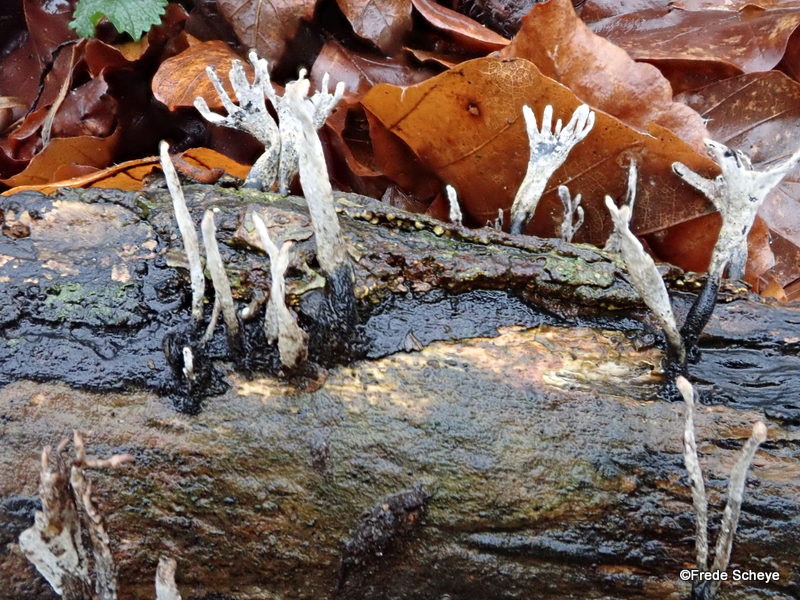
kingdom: Fungi
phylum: Ascomycota
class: Sordariomycetes
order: Xylariales
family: Xylariaceae
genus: Xylaria
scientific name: Xylaria hypoxylon
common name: grenet stødsvamp
